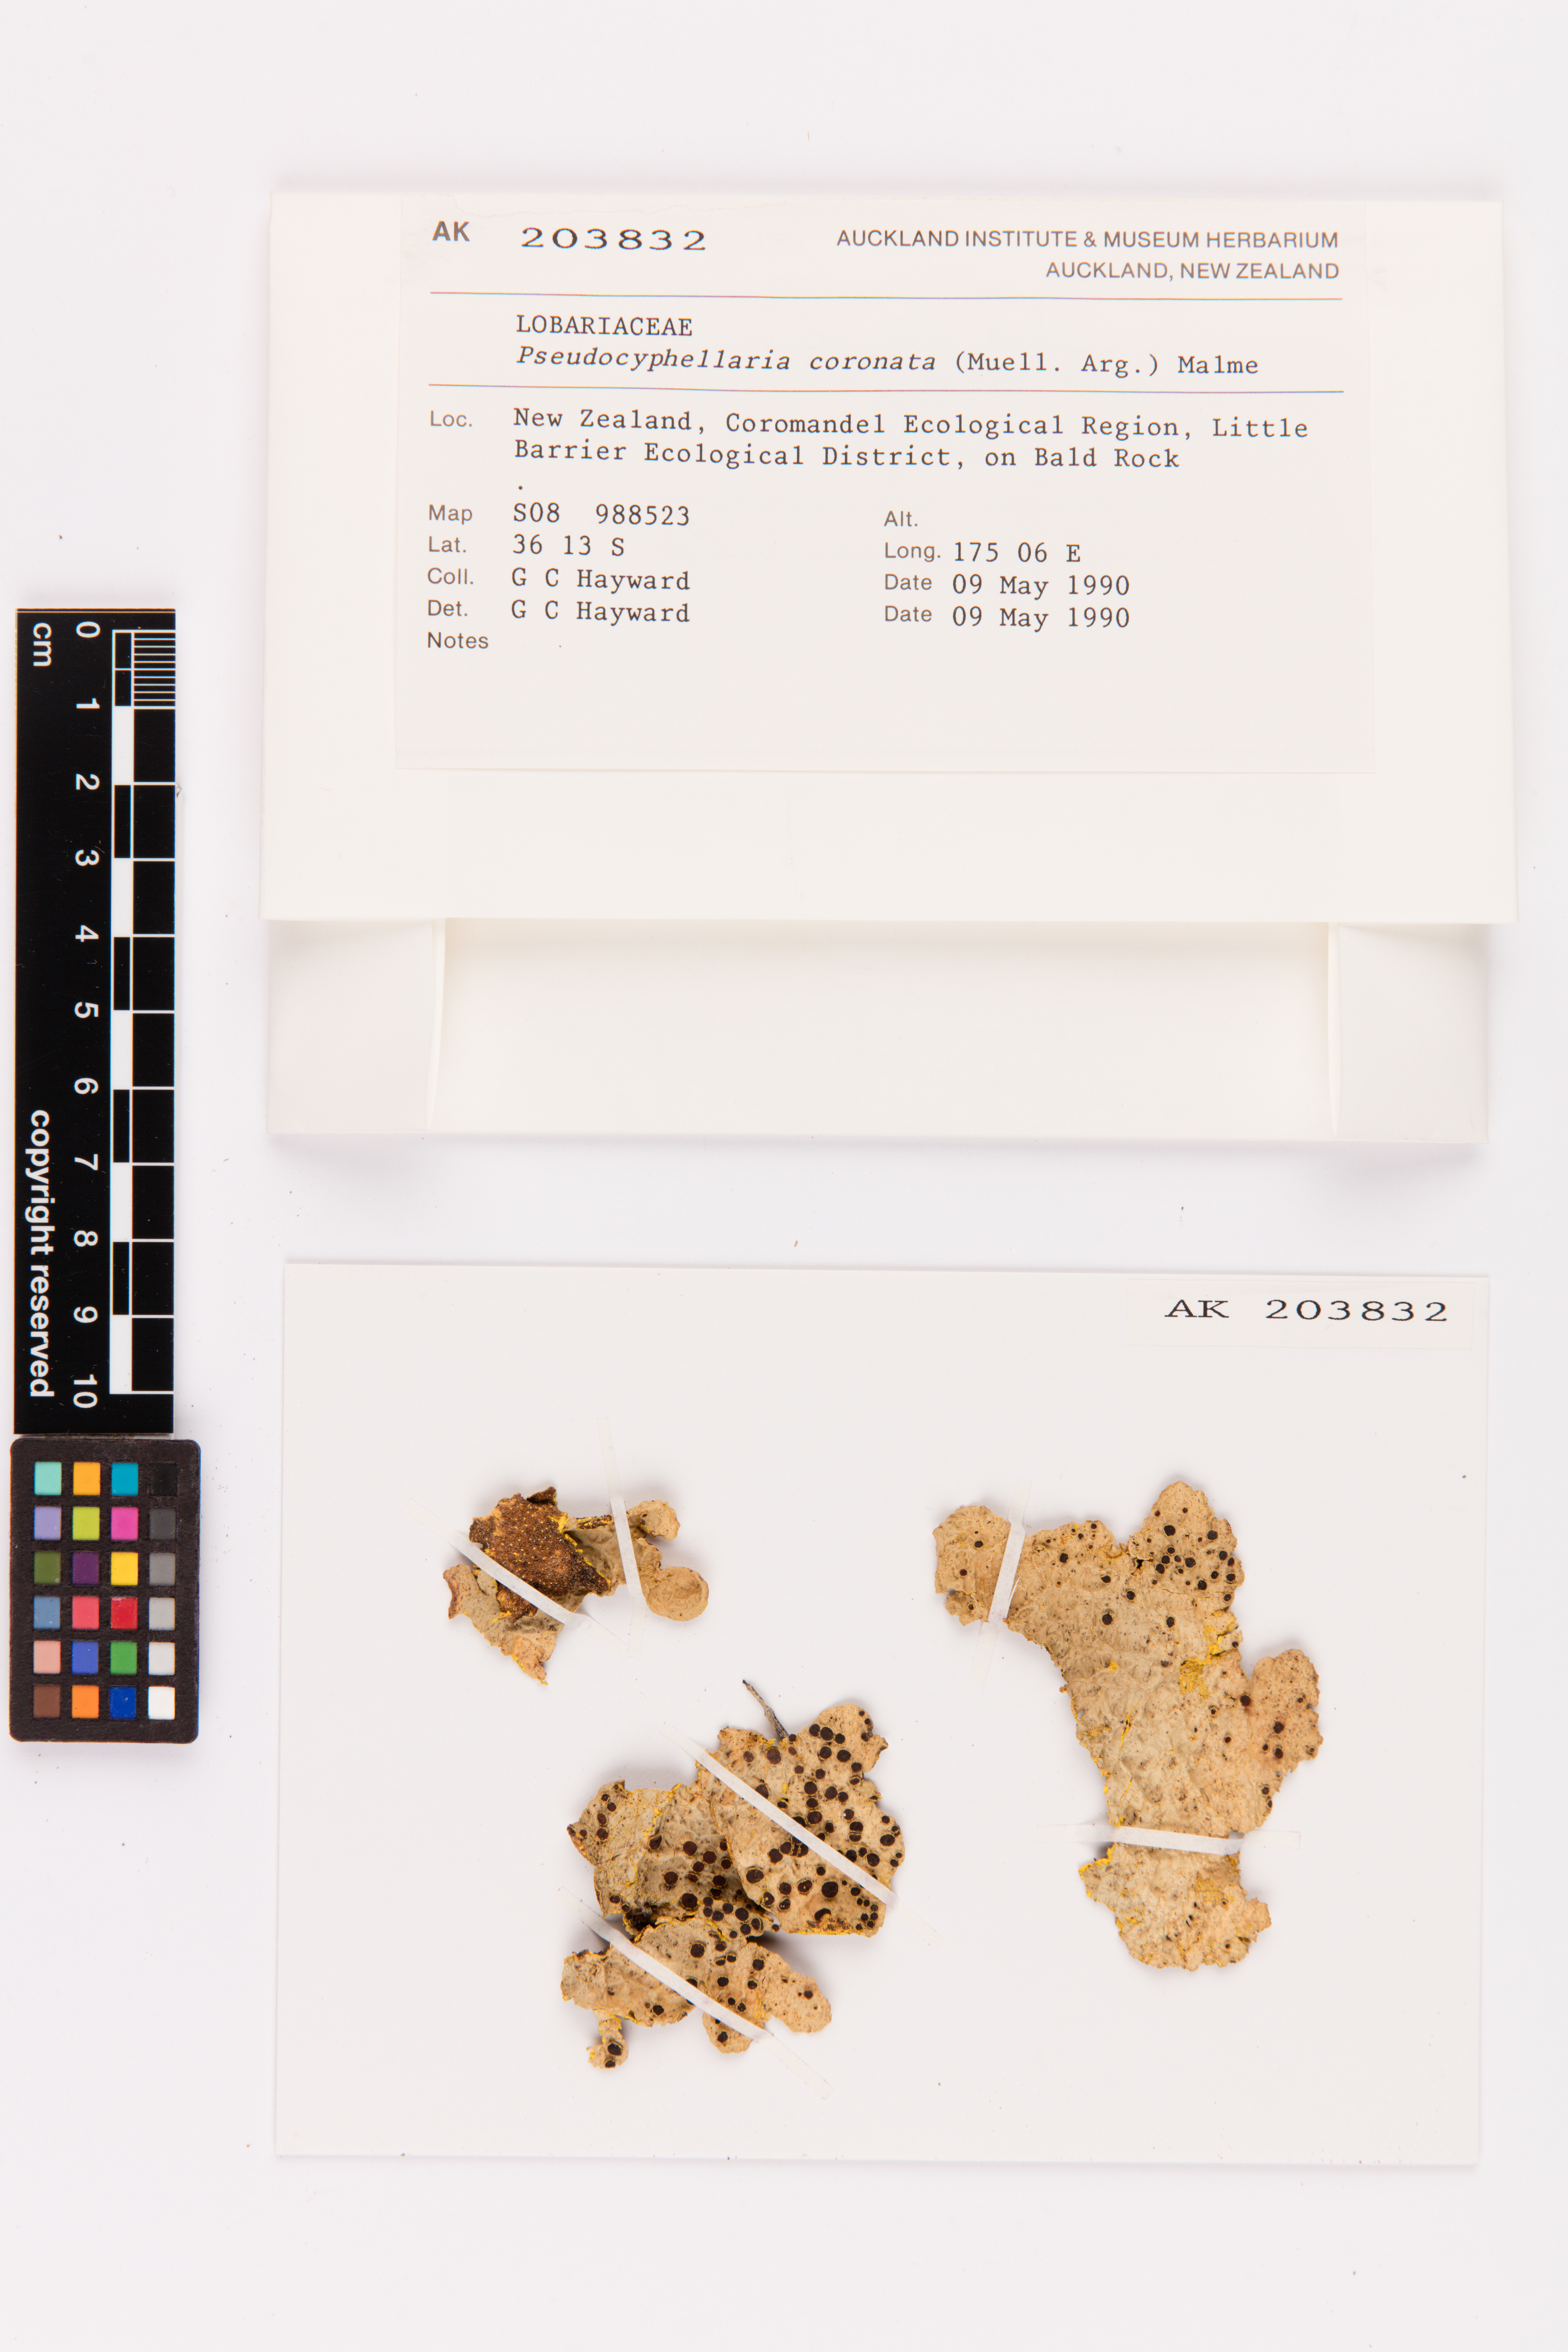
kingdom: Fungi
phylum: Ascomycota
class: Lecanoromycetes
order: Peltigerales
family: Lobariaceae
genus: Yarrumia
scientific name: Yarrumia coronata
